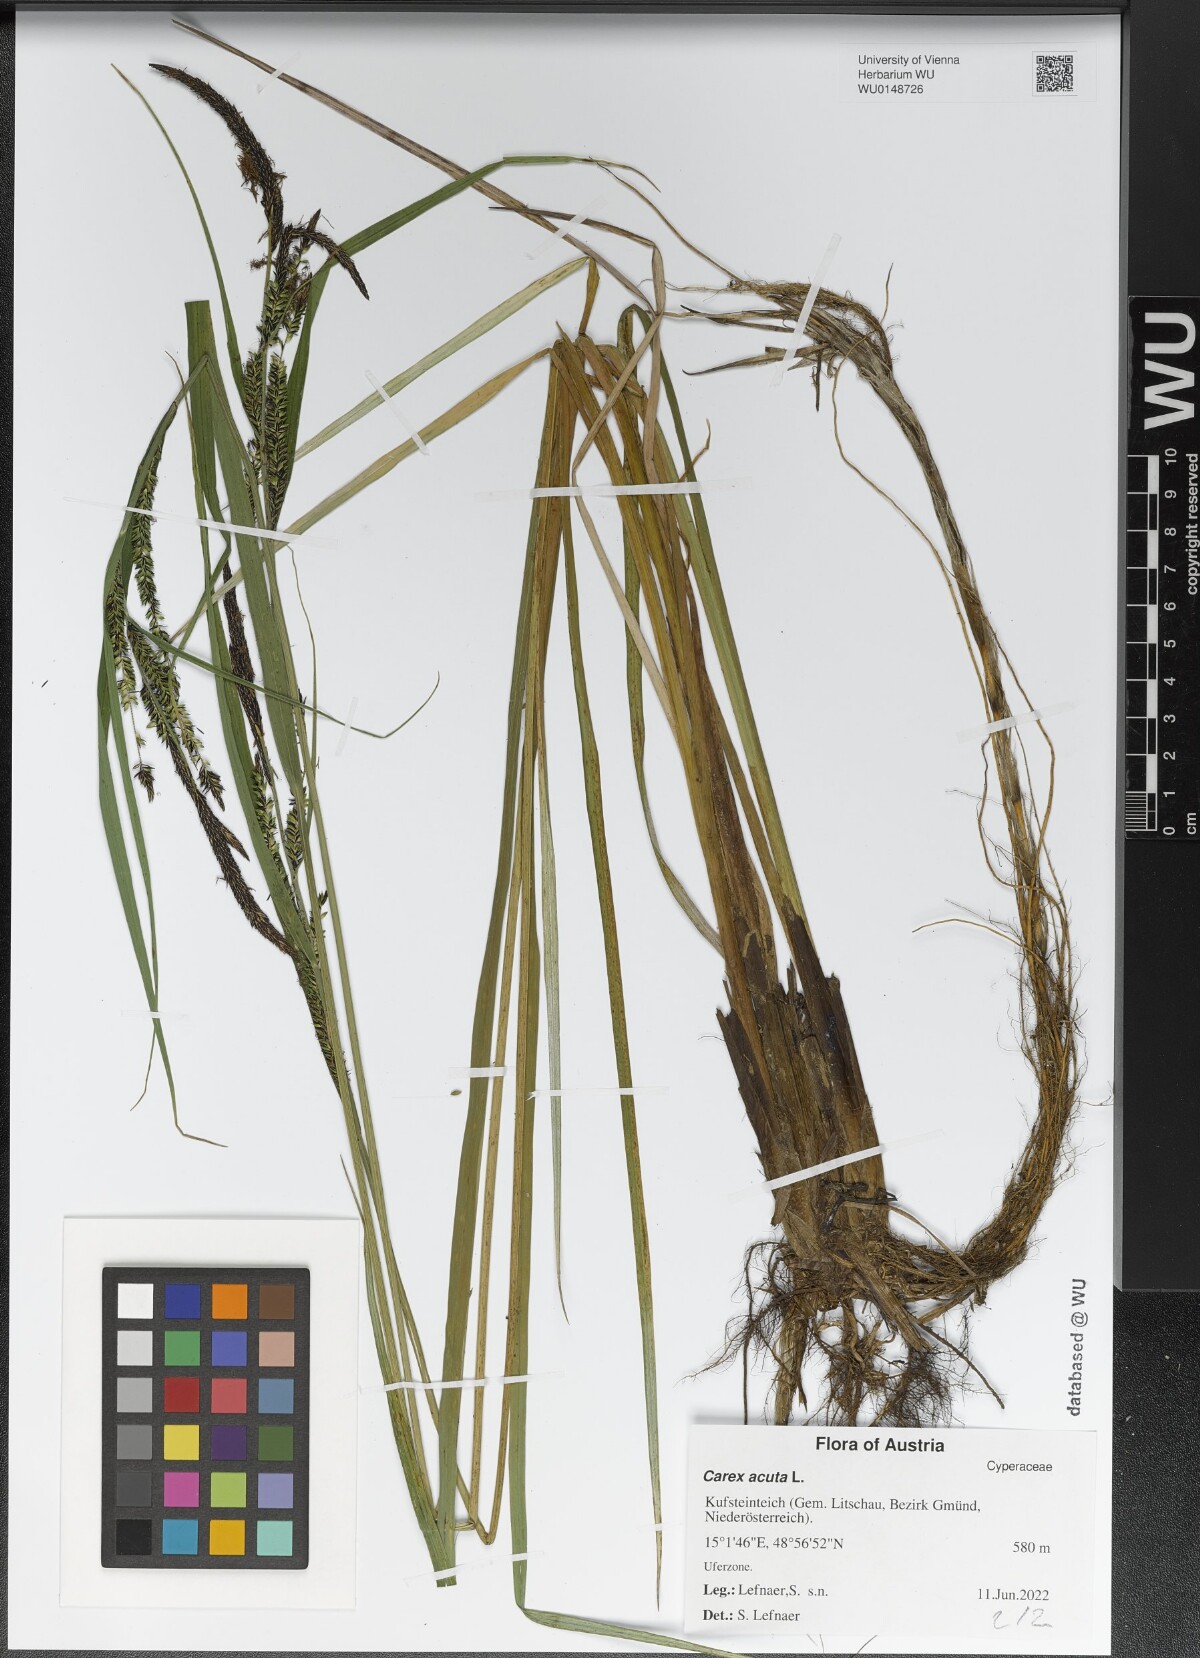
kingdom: Plantae
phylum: Tracheophyta
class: Liliopsida
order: Poales
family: Cyperaceae
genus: Carex
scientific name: Carex acuta
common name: Slender tufted-sedge
